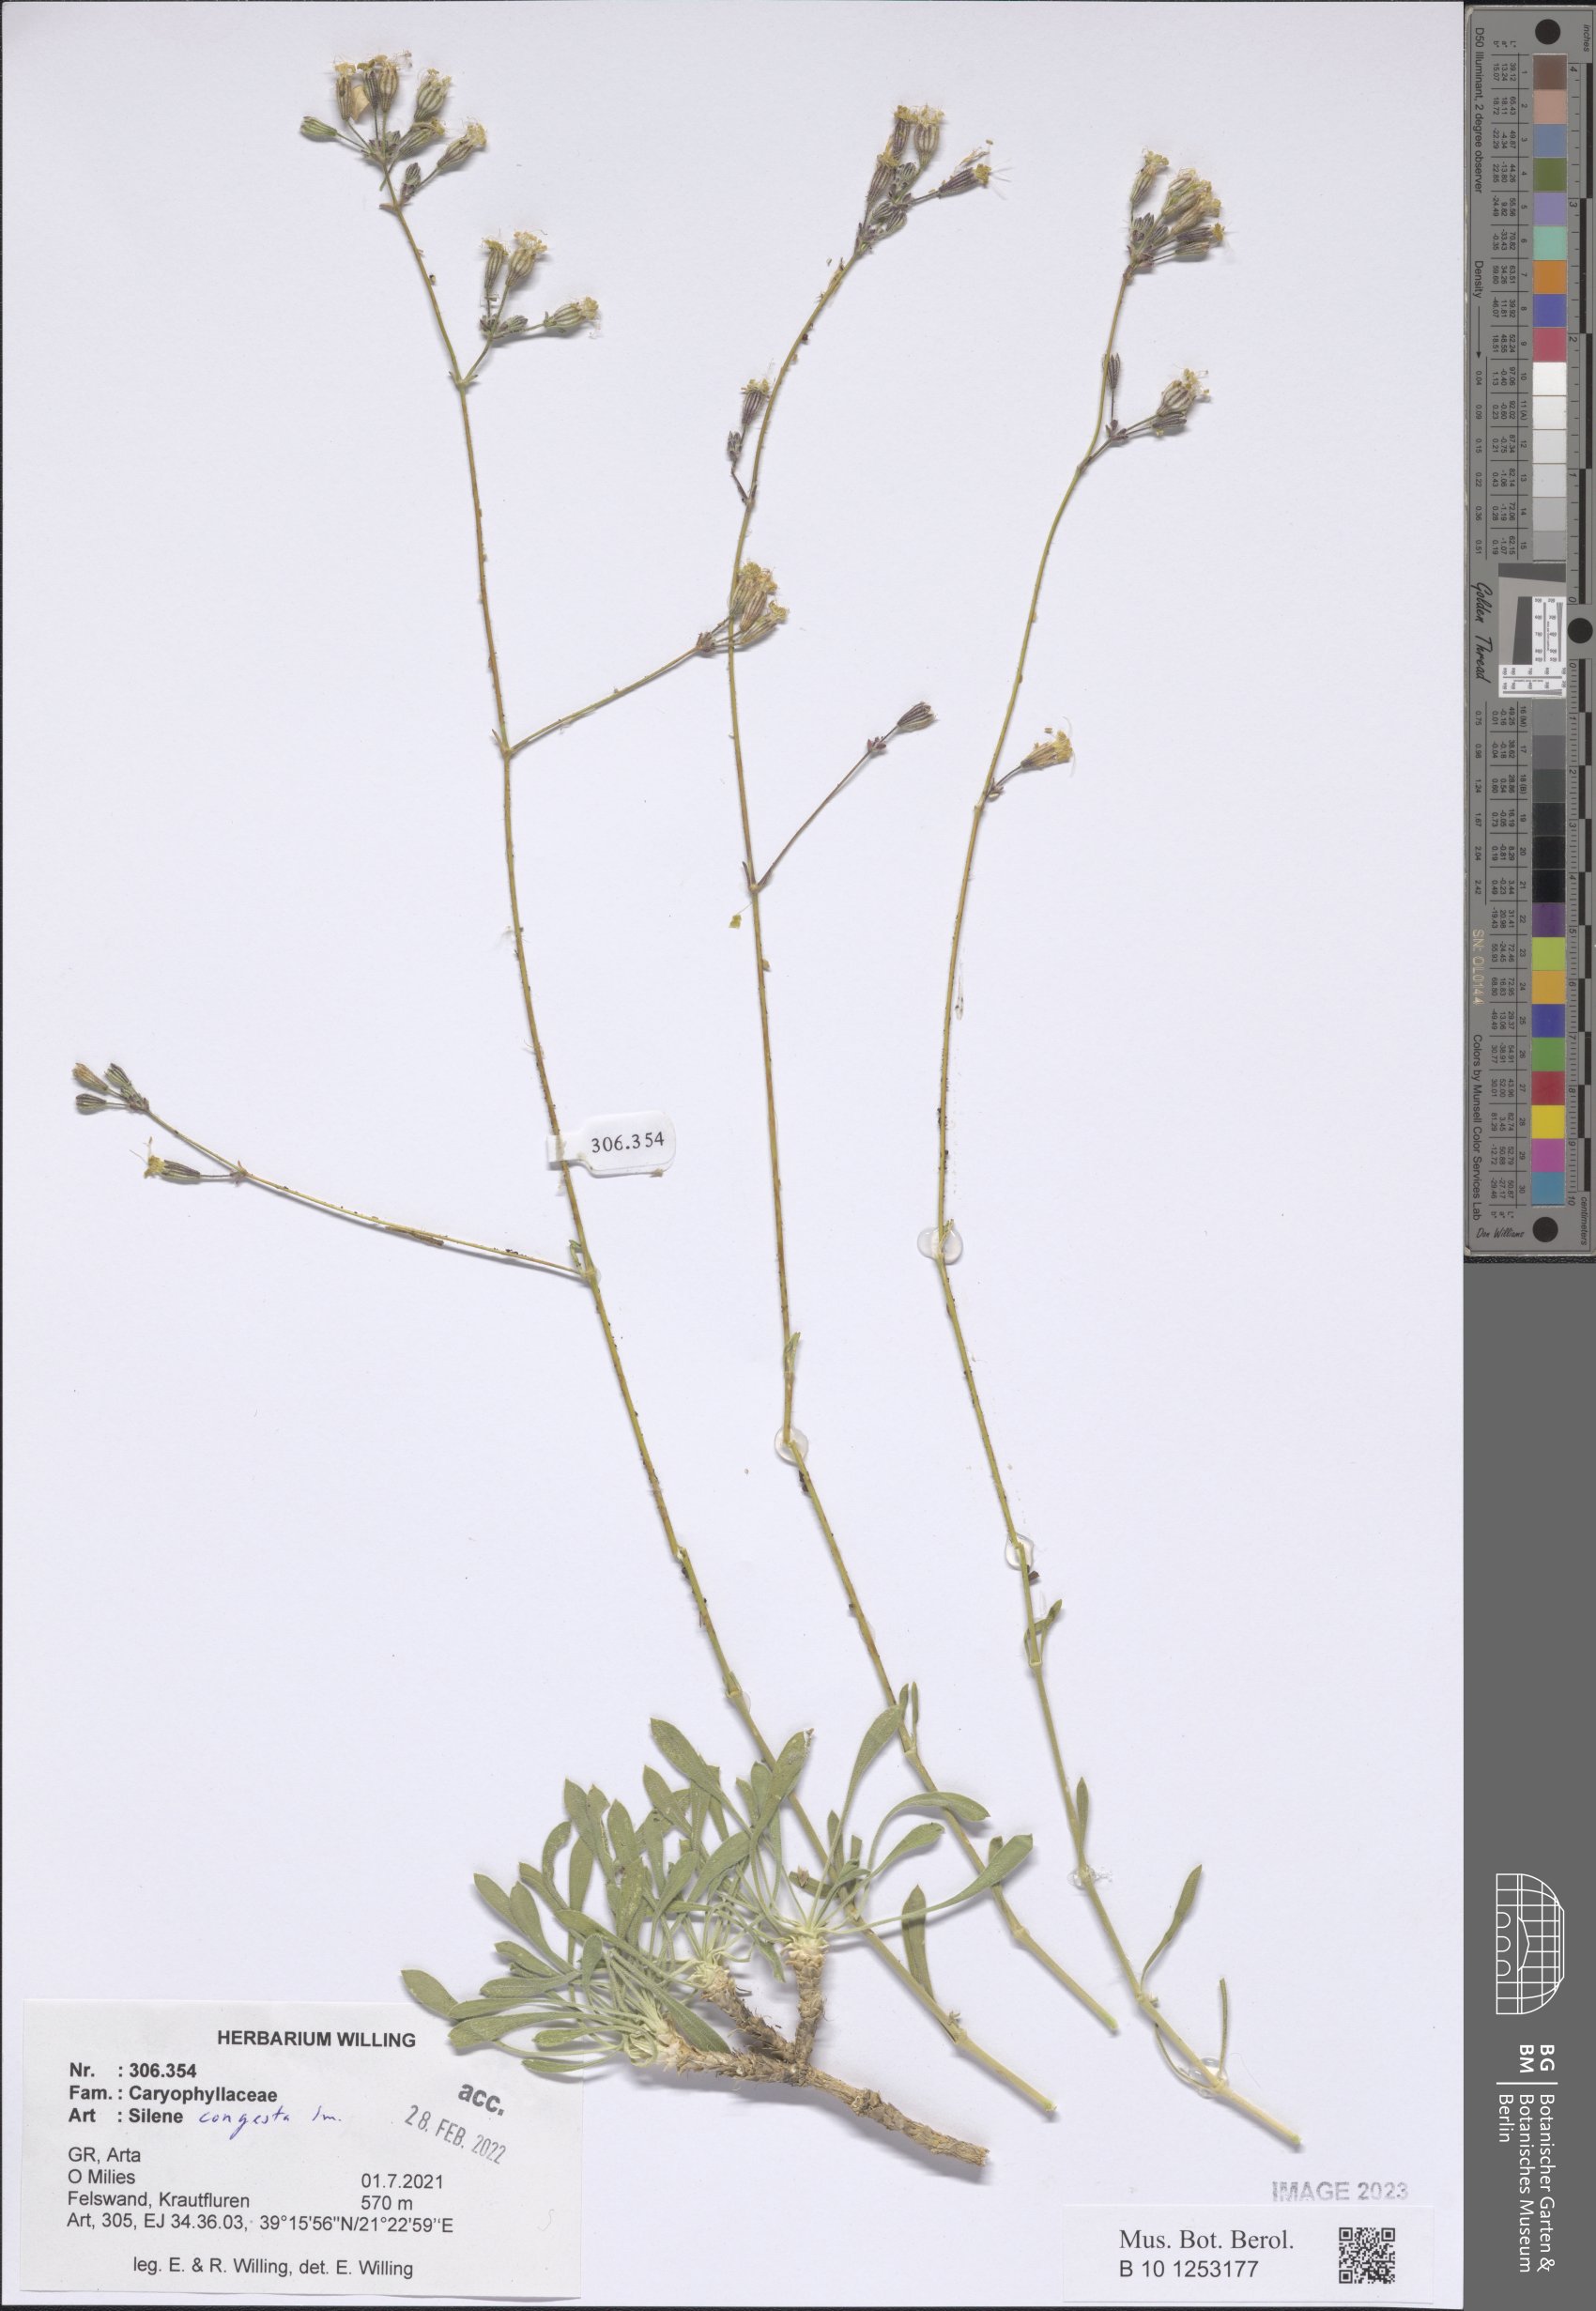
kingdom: Plantae
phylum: Tracheophyta
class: Magnoliopsida
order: Caryophyllales
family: Caryophyllaceae
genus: Silene
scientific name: Silene congesta
